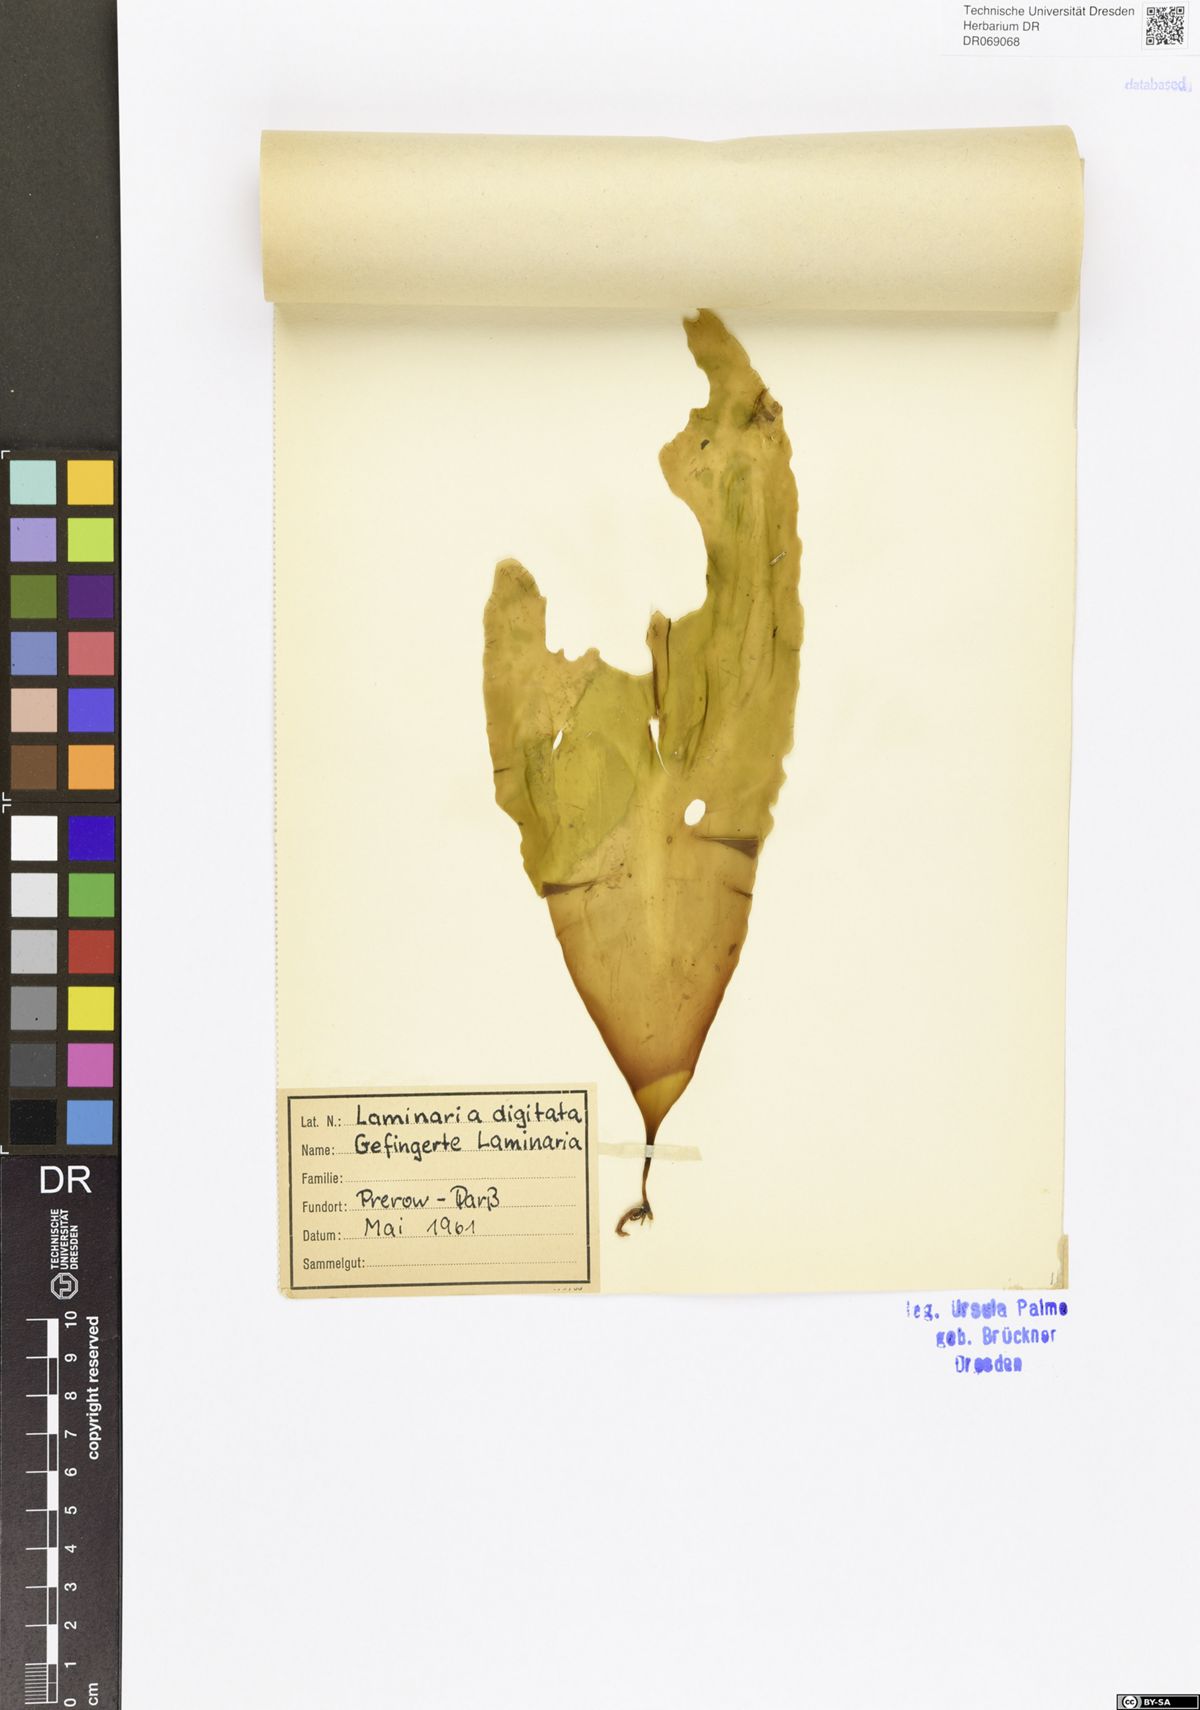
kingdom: Chromista
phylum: Ochrophyta
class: Phaeophyceae
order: Laminariales
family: Laminariaceae
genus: Laminaria
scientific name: Laminaria digitata
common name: Oarweed
